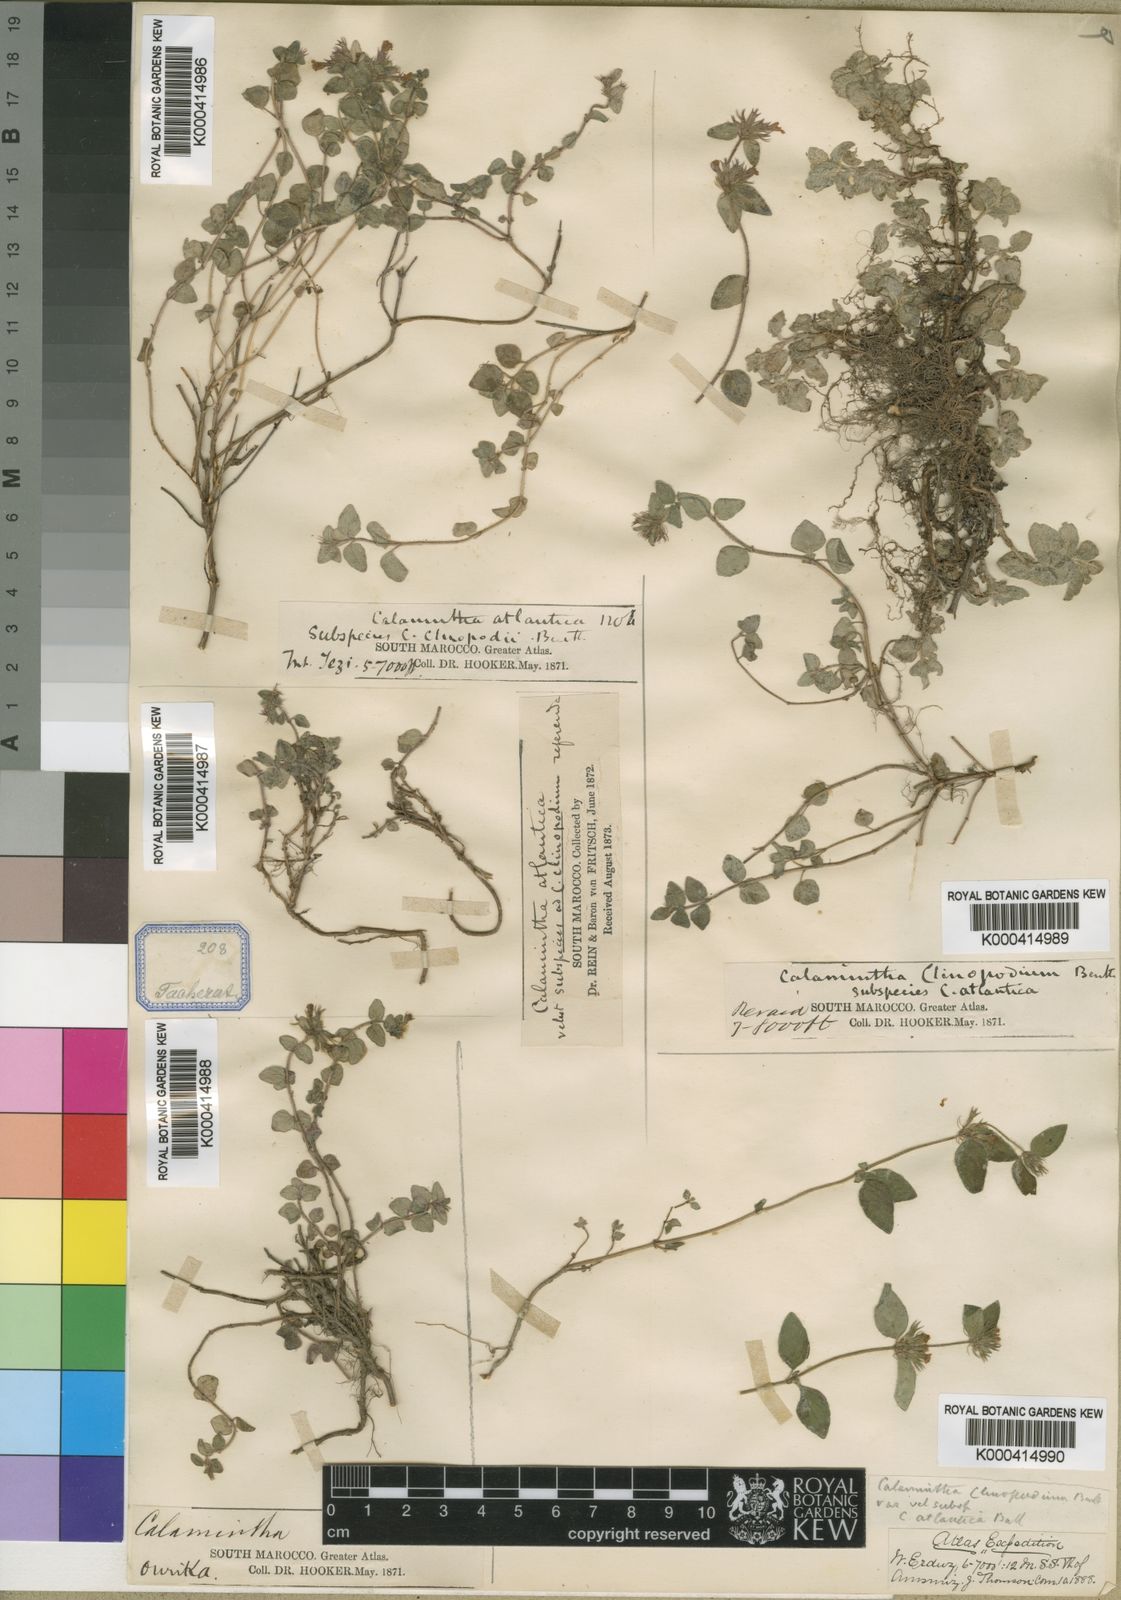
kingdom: Plantae
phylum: Tracheophyta
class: Magnoliopsida
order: Lamiales
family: Lamiaceae
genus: Clinopodium
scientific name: Clinopodium atlanticum
